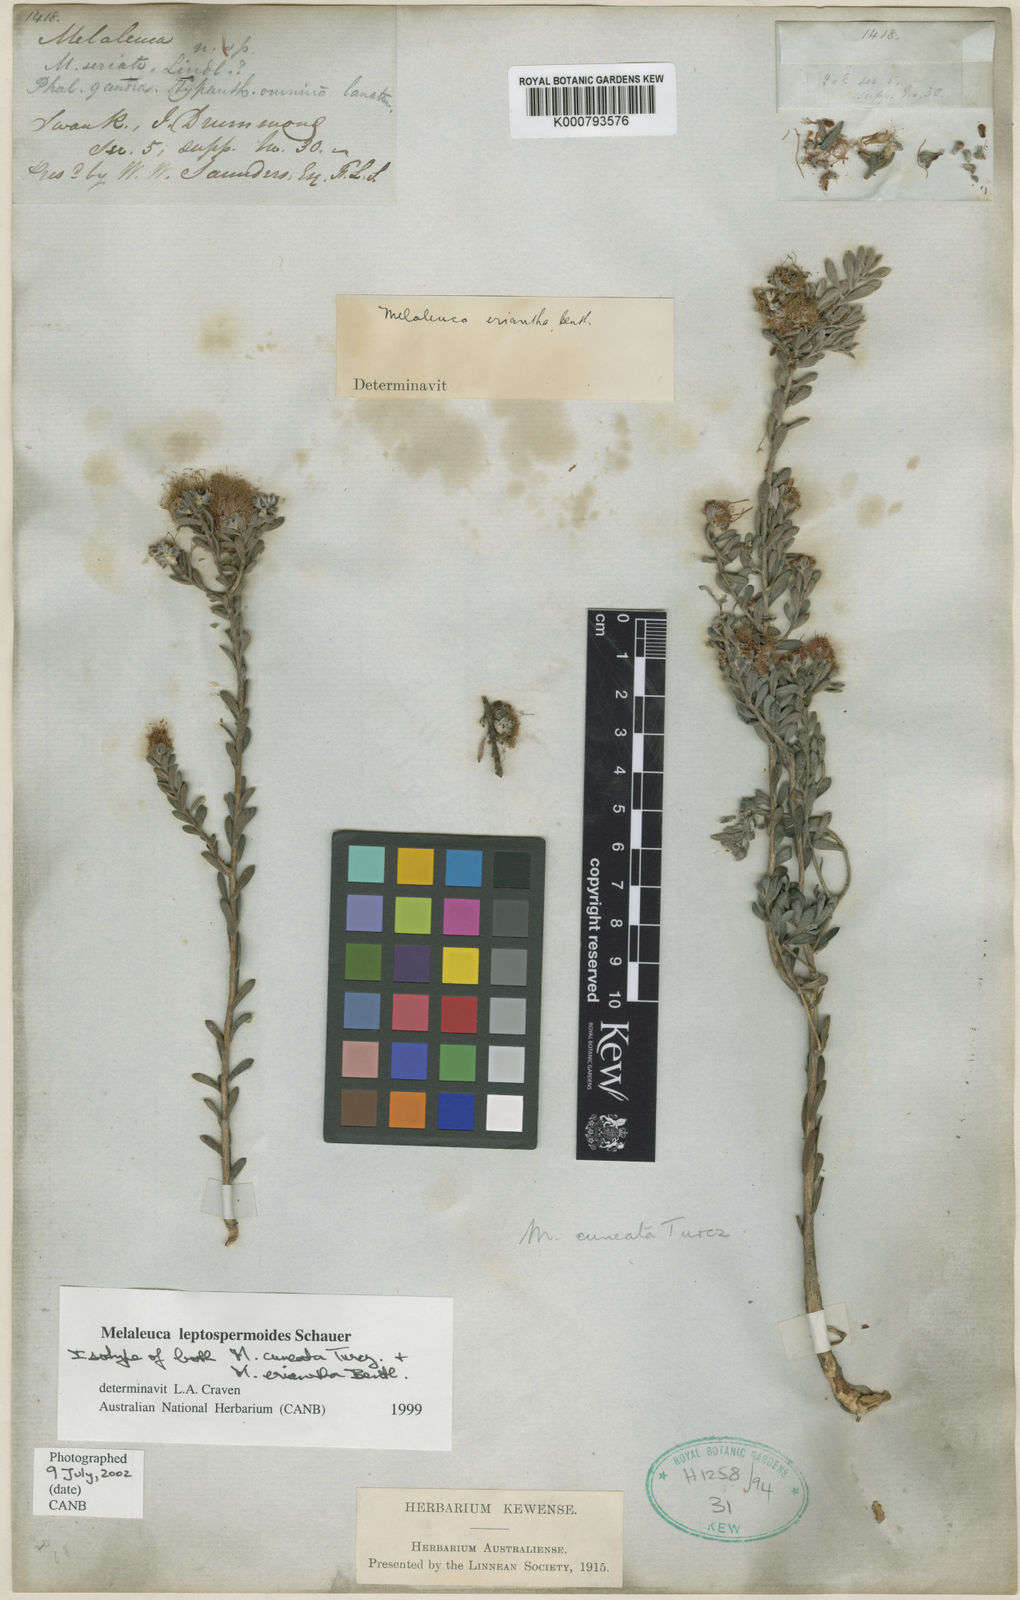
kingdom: Plantae
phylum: Tracheophyta
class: Magnoliopsida
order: Myrtales
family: Myrtaceae
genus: Melaleuca
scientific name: Melaleuca leptospermoides
